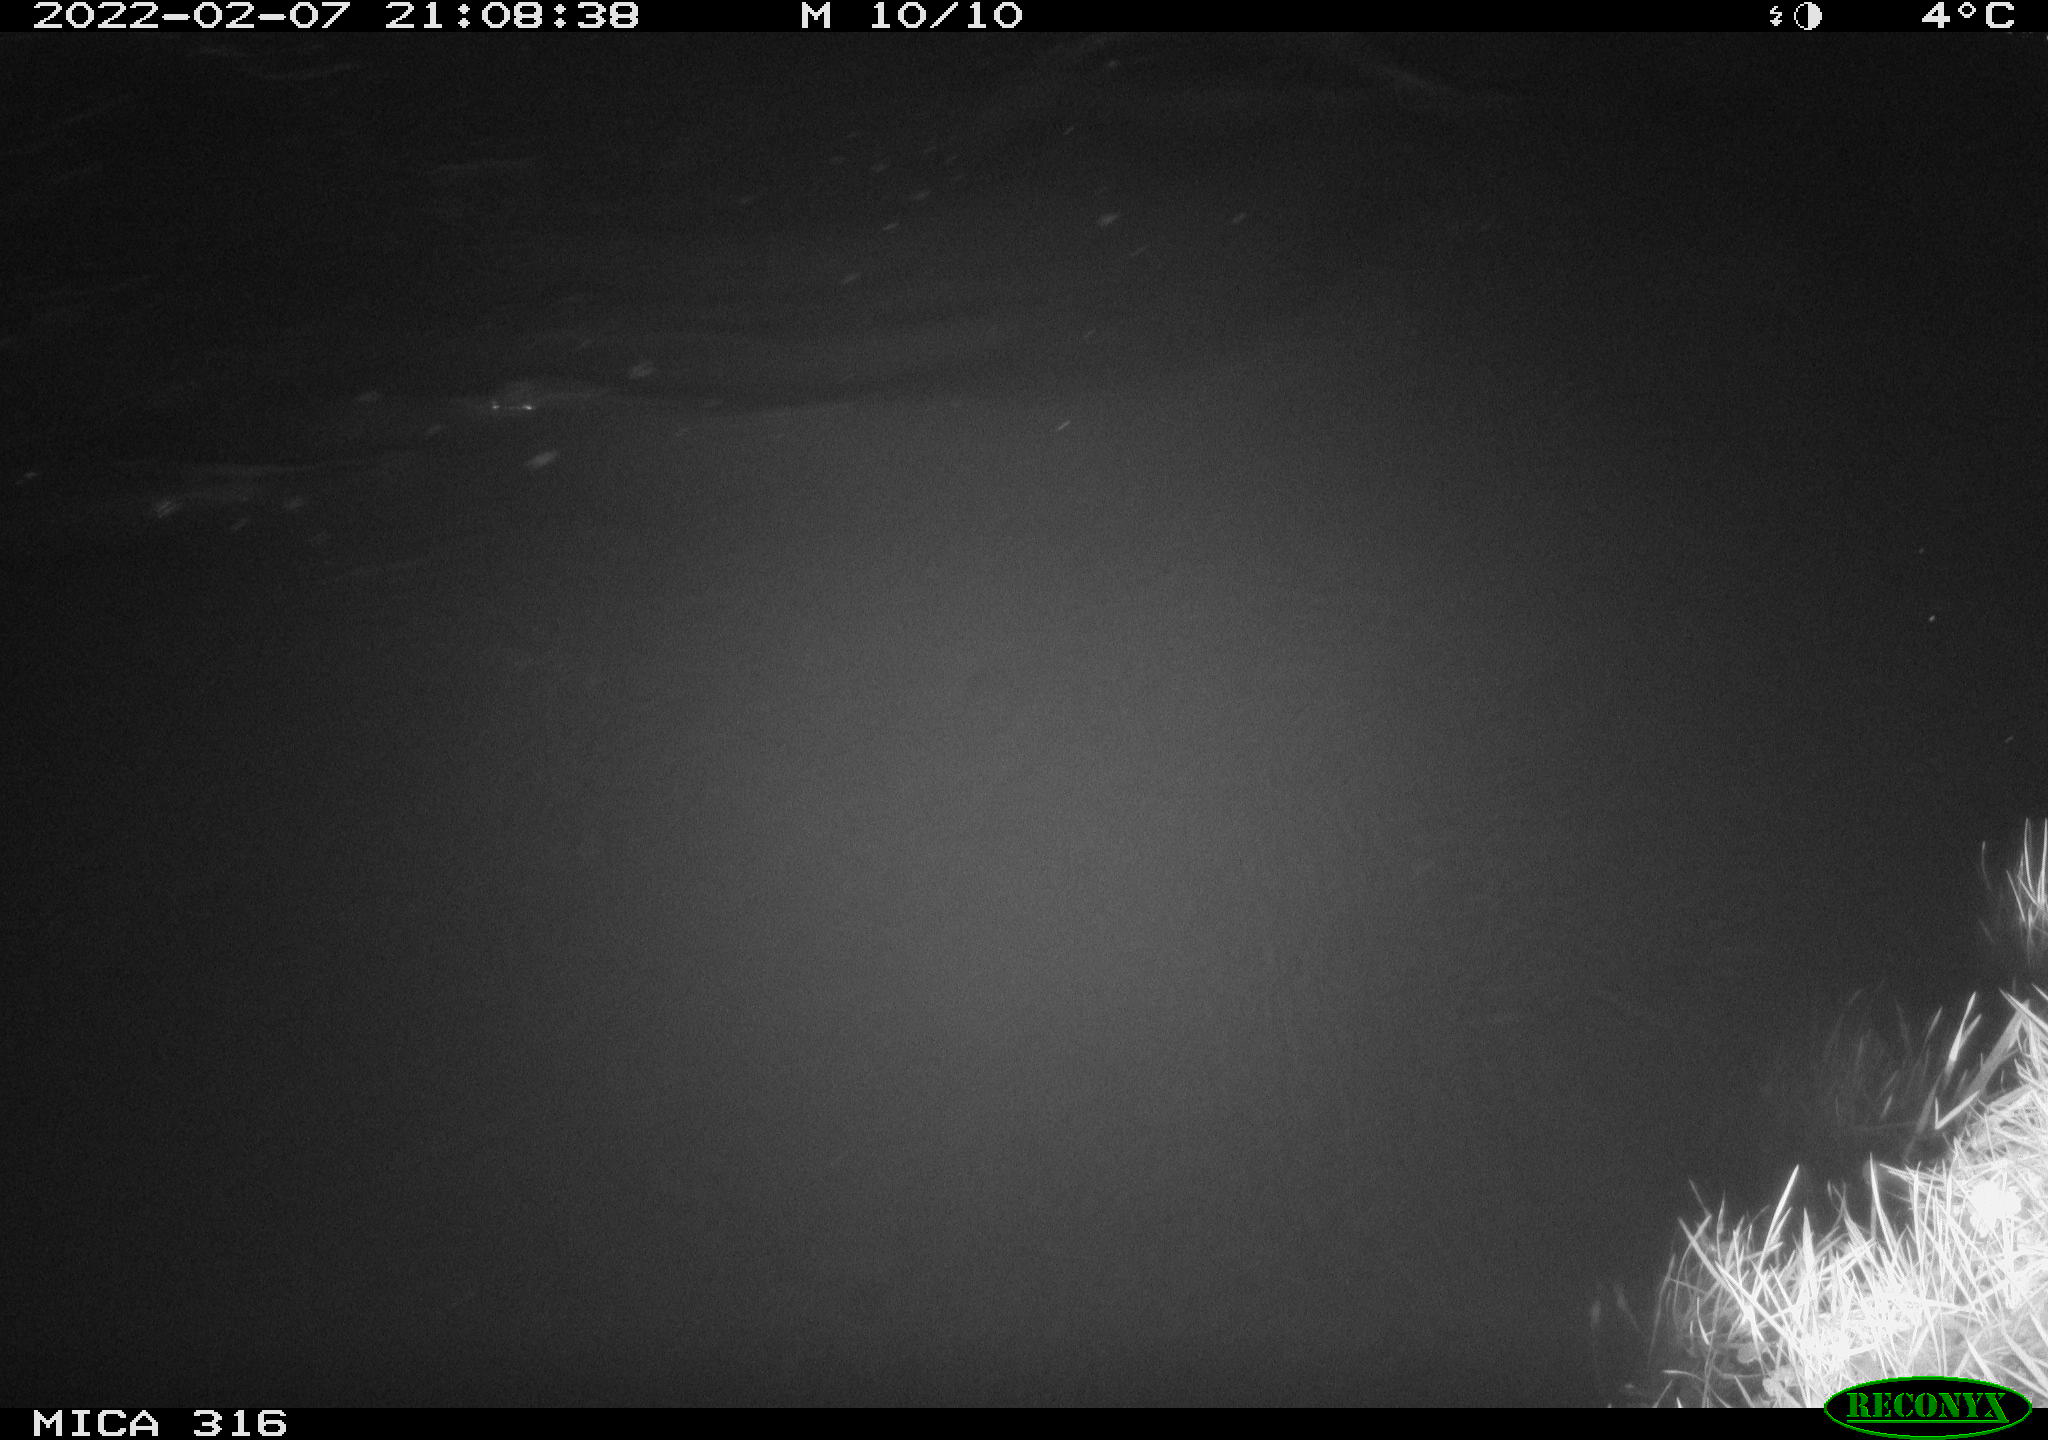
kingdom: Animalia
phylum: Chordata
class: Aves
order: Anseriformes
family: Anatidae
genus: Mareca
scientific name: Mareca strepera
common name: Gadwall
